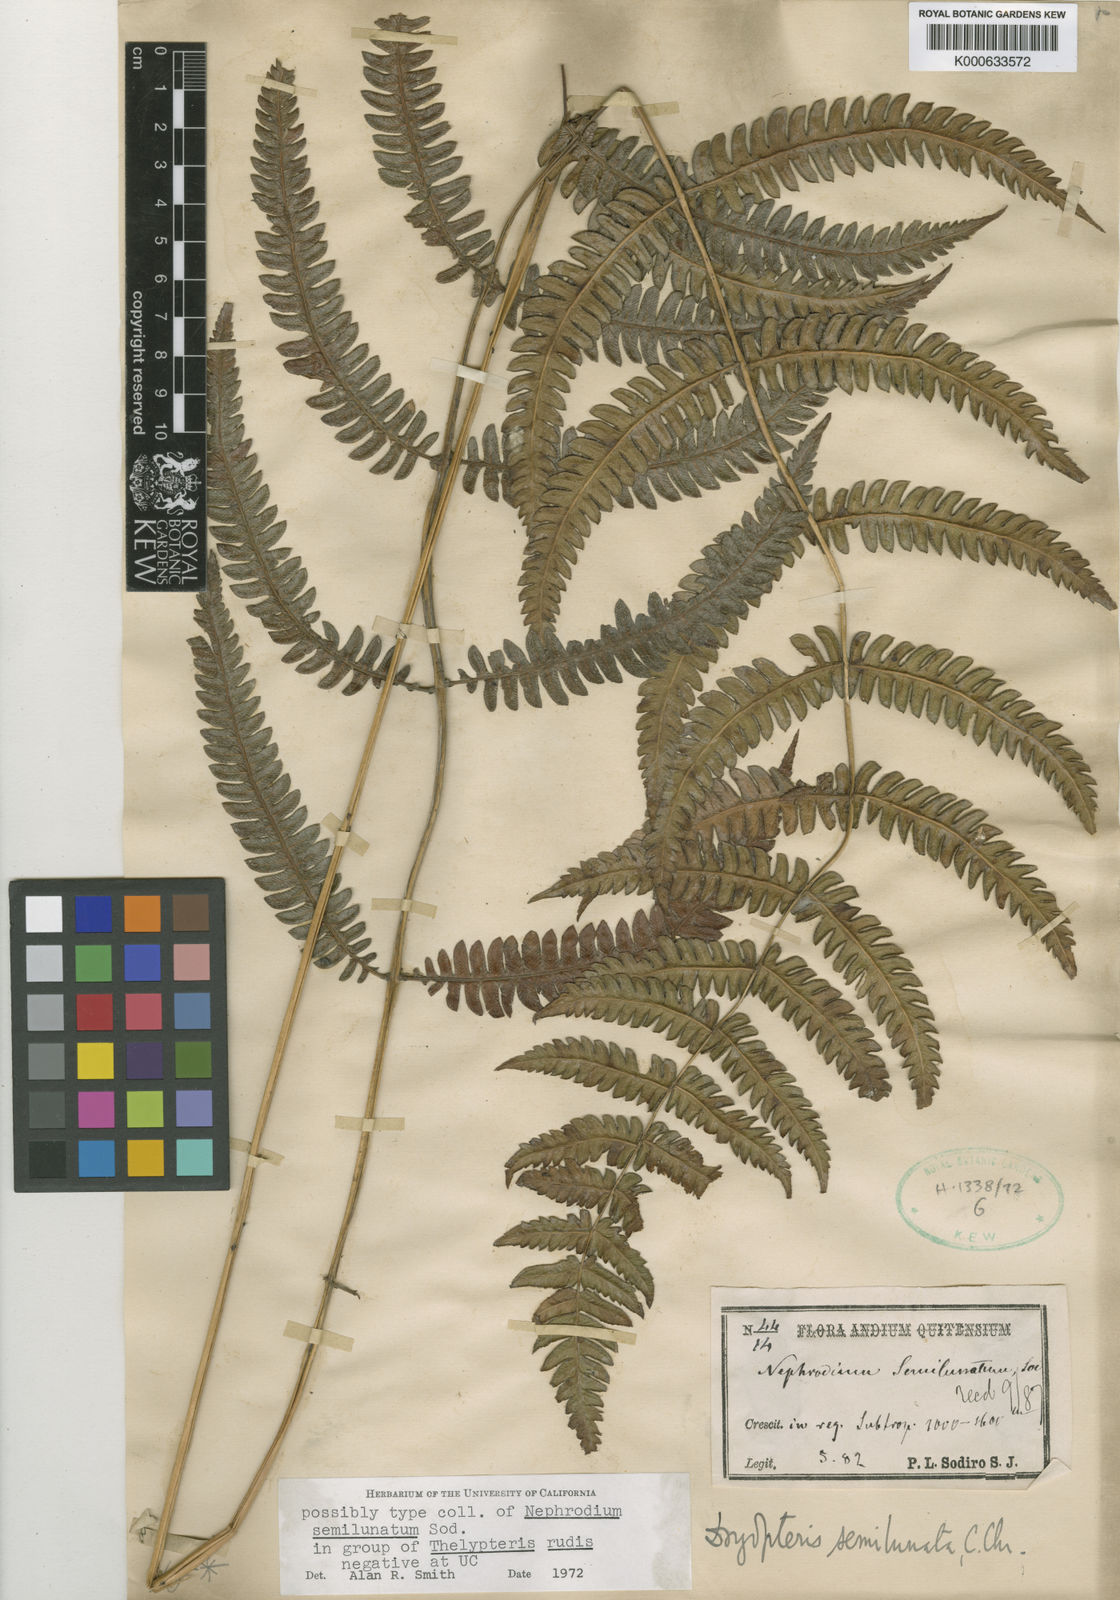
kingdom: Plantae
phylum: Tracheophyta
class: Polypodiopsida
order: Polypodiales
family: Thelypteridaceae
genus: Amauropelta
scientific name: Amauropelta semilunata
